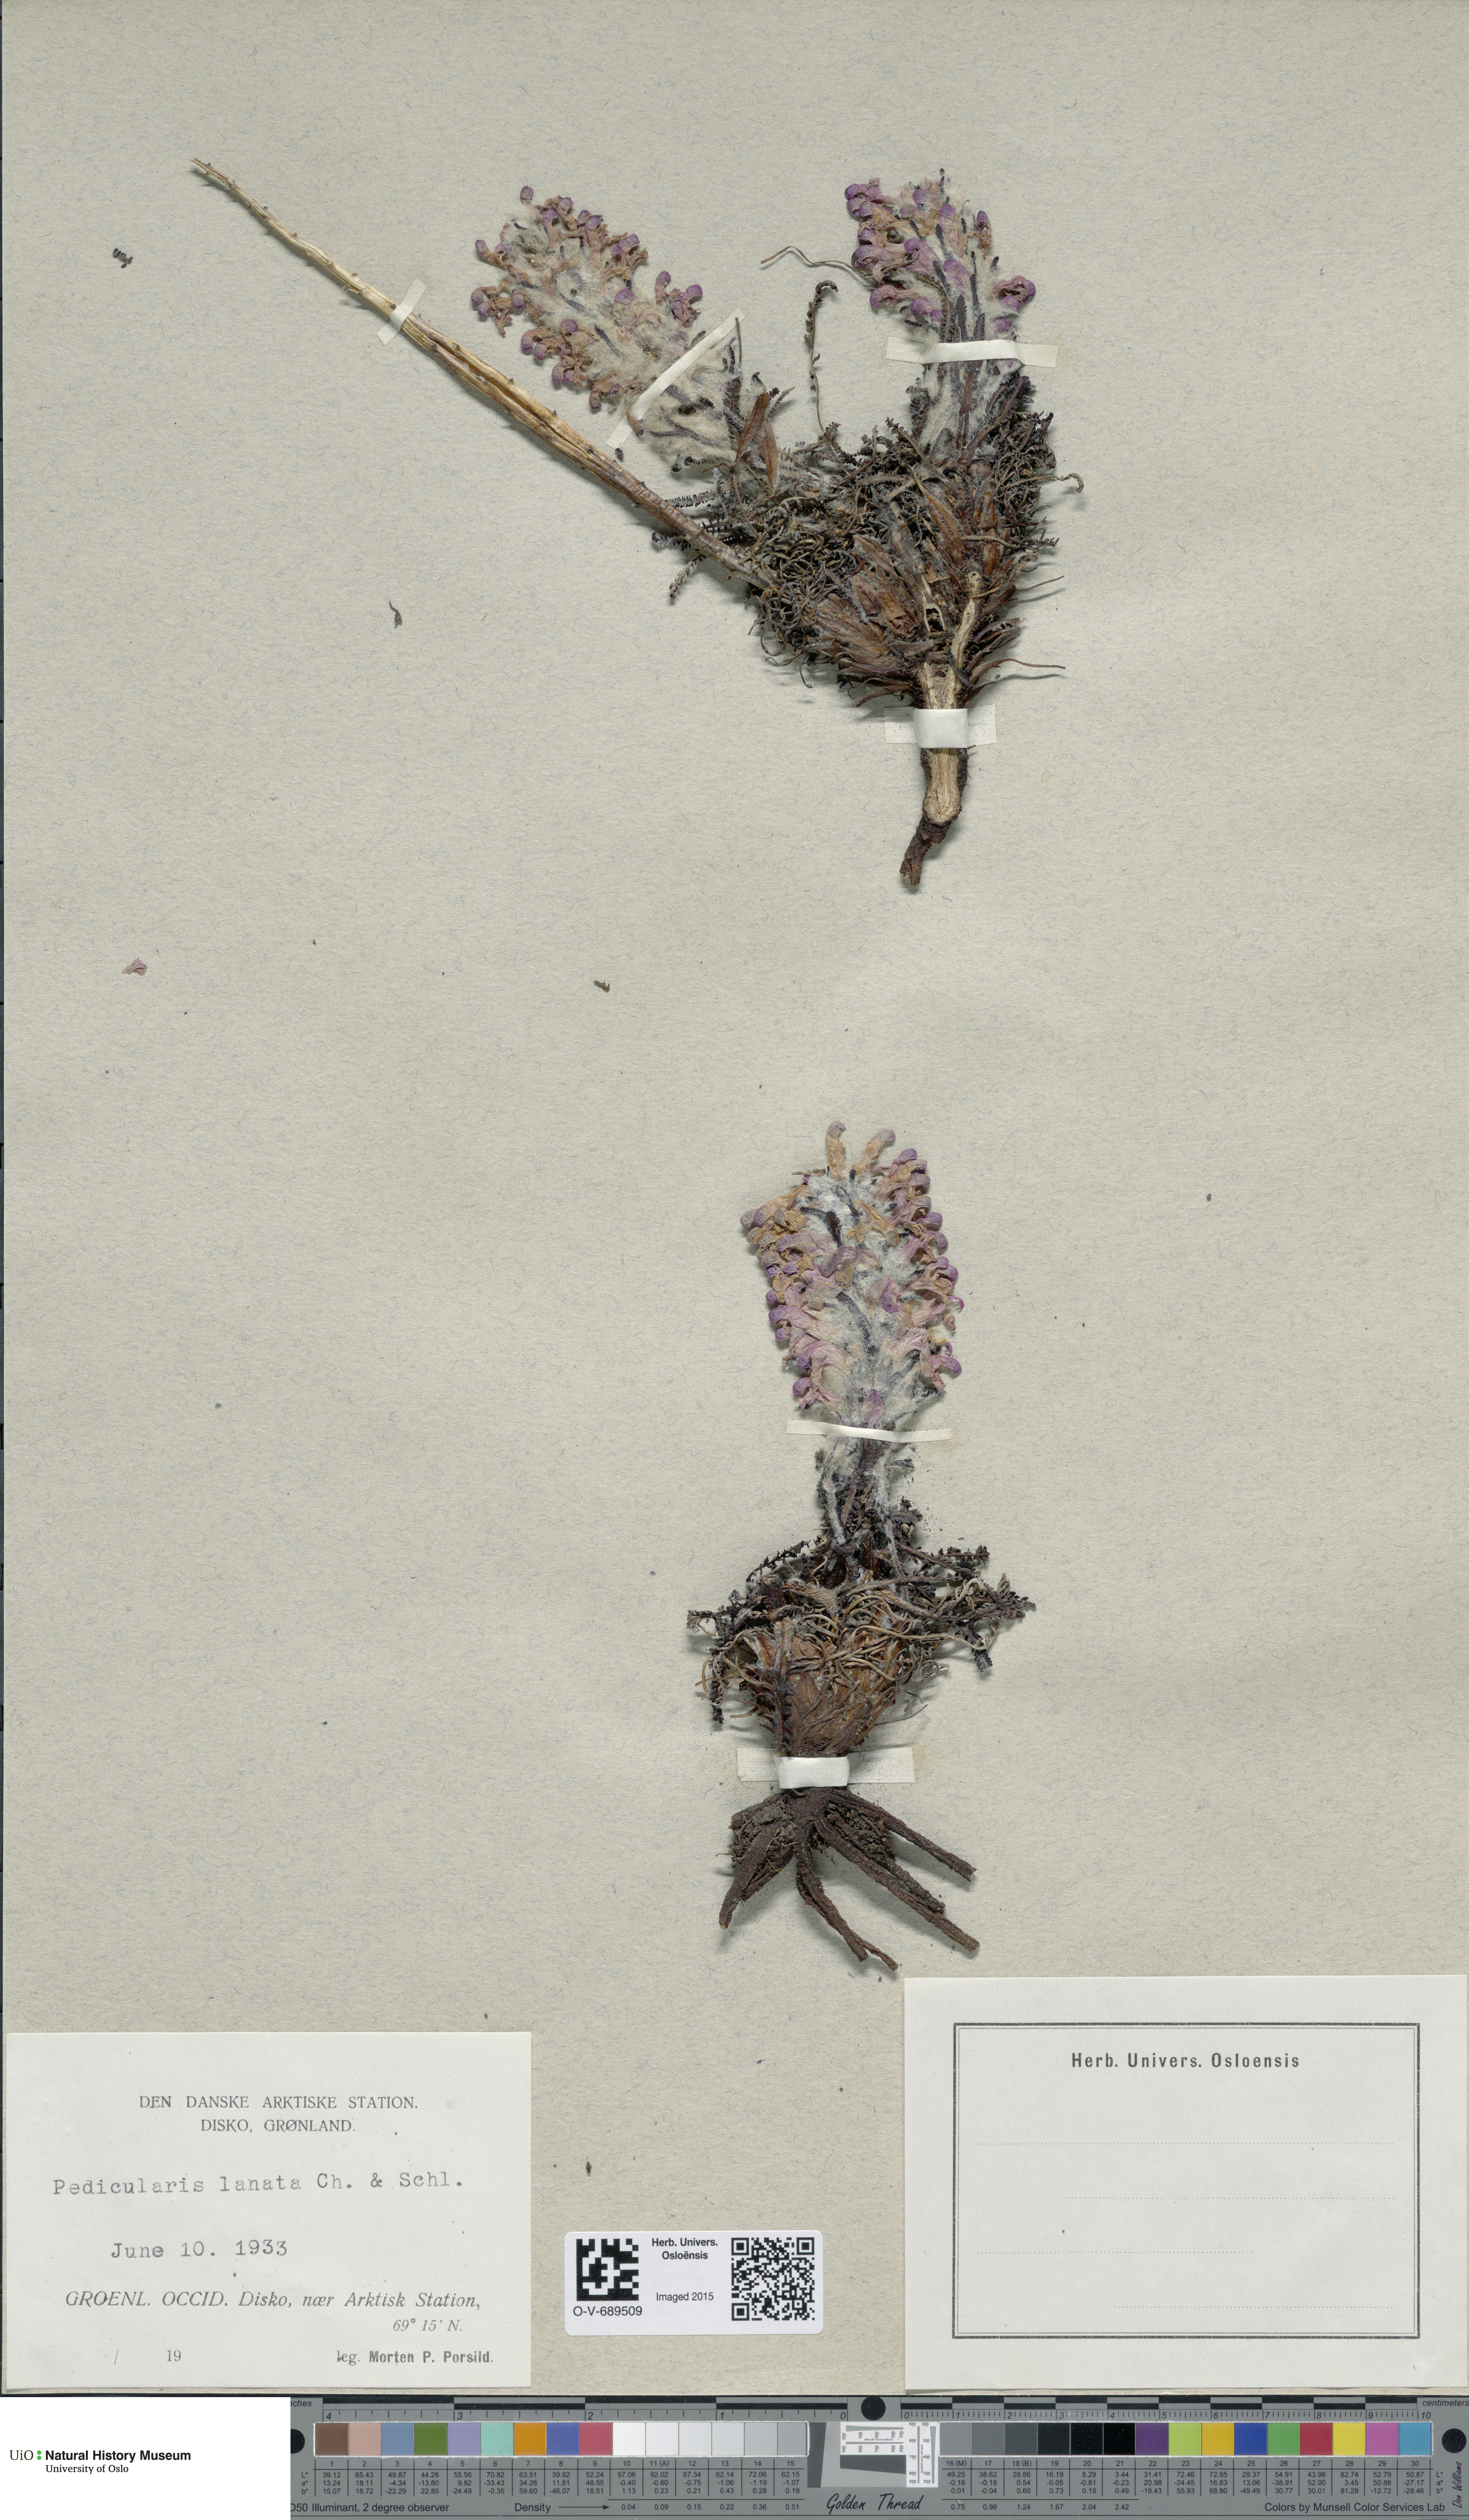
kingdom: Plantae
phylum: Tracheophyta
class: Magnoliopsida
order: Lamiales
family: Orobanchaceae
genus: Pedicularis
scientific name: Pedicularis lanata
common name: Woolly lousewort
